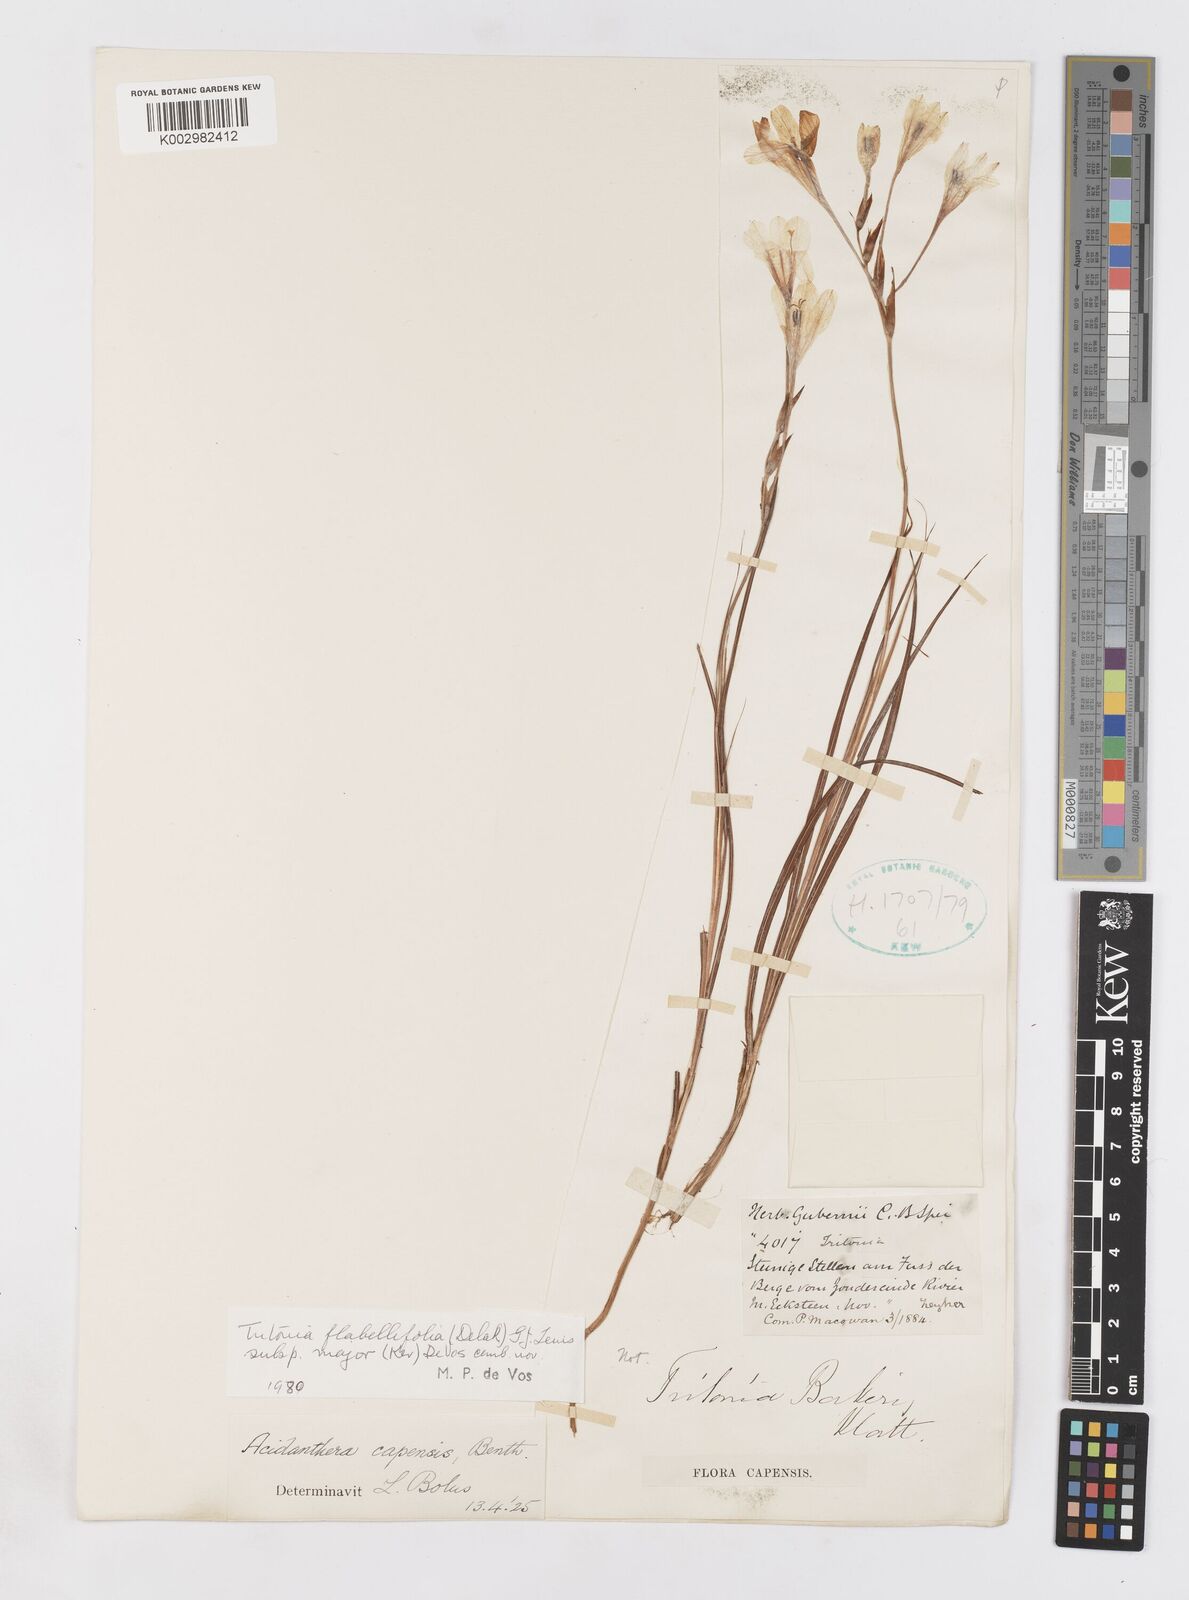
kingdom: Plantae
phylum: Tracheophyta
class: Liliopsida
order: Asparagales
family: Iridaceae
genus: Tritonia
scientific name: Tritonia
